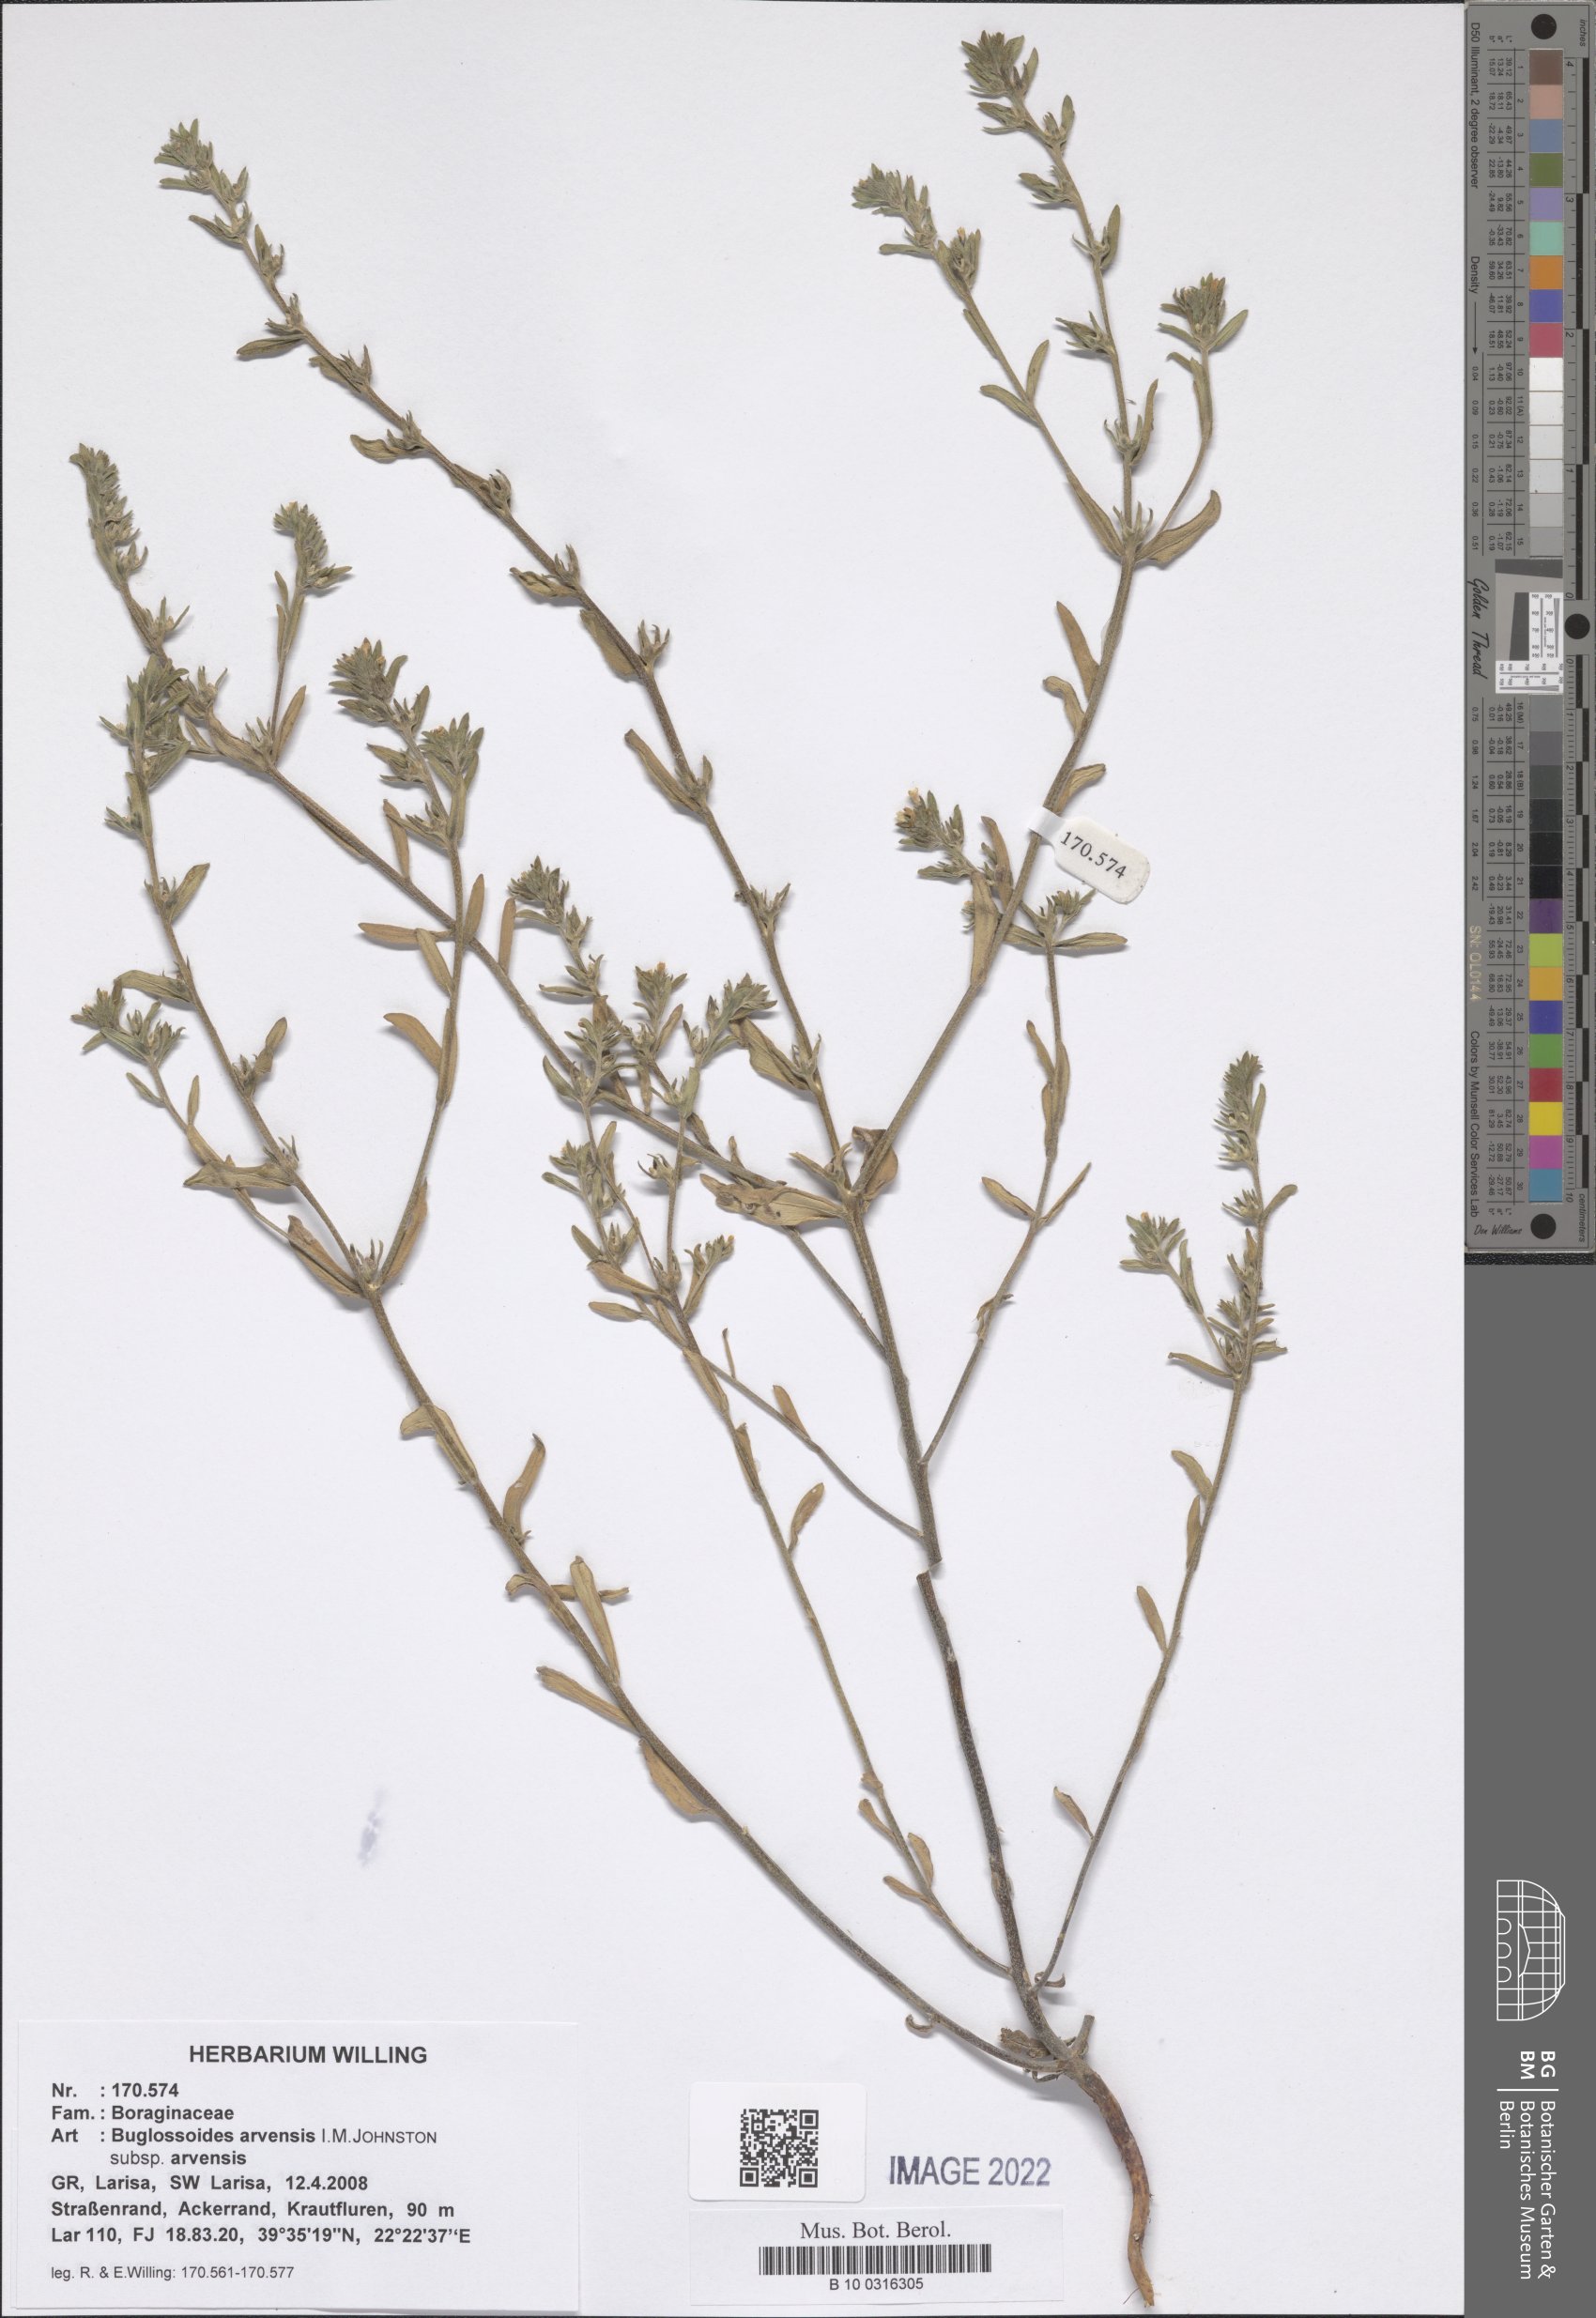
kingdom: Plantae
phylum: Tracheophyta
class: Magnoliopsida
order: Boraginales
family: Boraginaceae
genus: Buglossoides
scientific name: Buglossoides arvensis
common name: Corn gromwell
